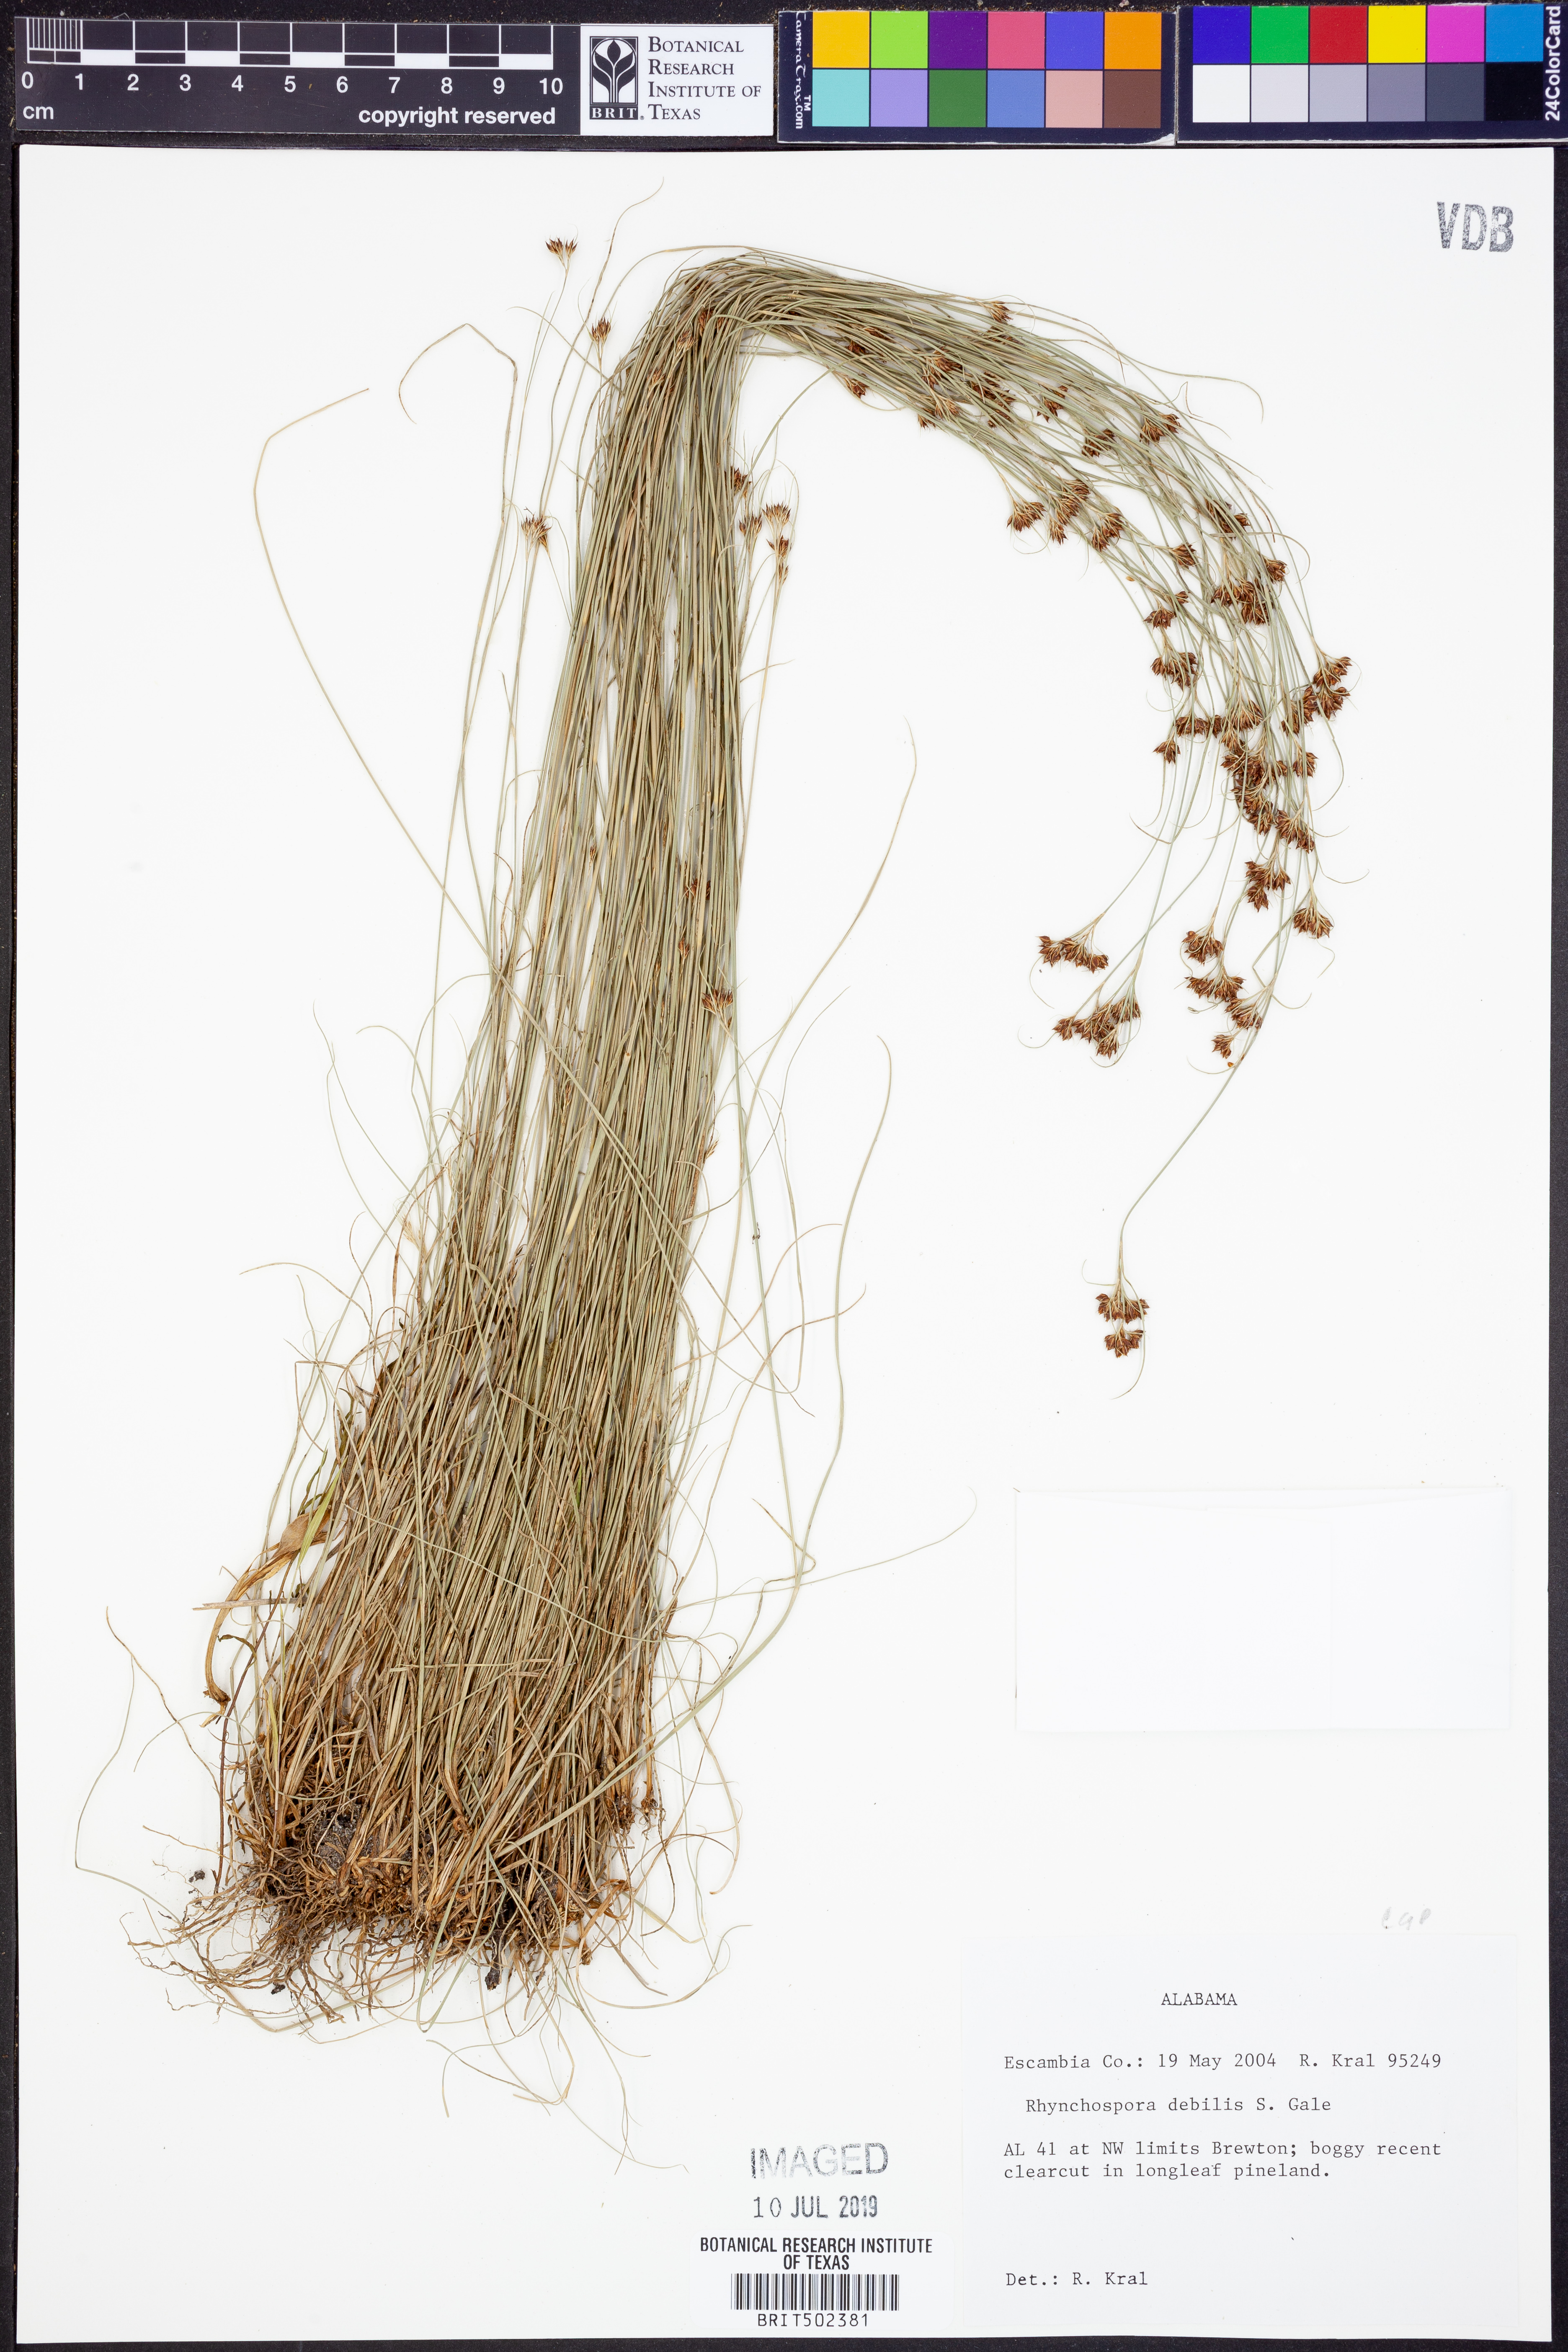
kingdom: Plantae
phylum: Tracheophyta
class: Liliopsida
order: Poales
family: Cyperaceae
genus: Rhynchospora
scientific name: Rhynchospora debilis
